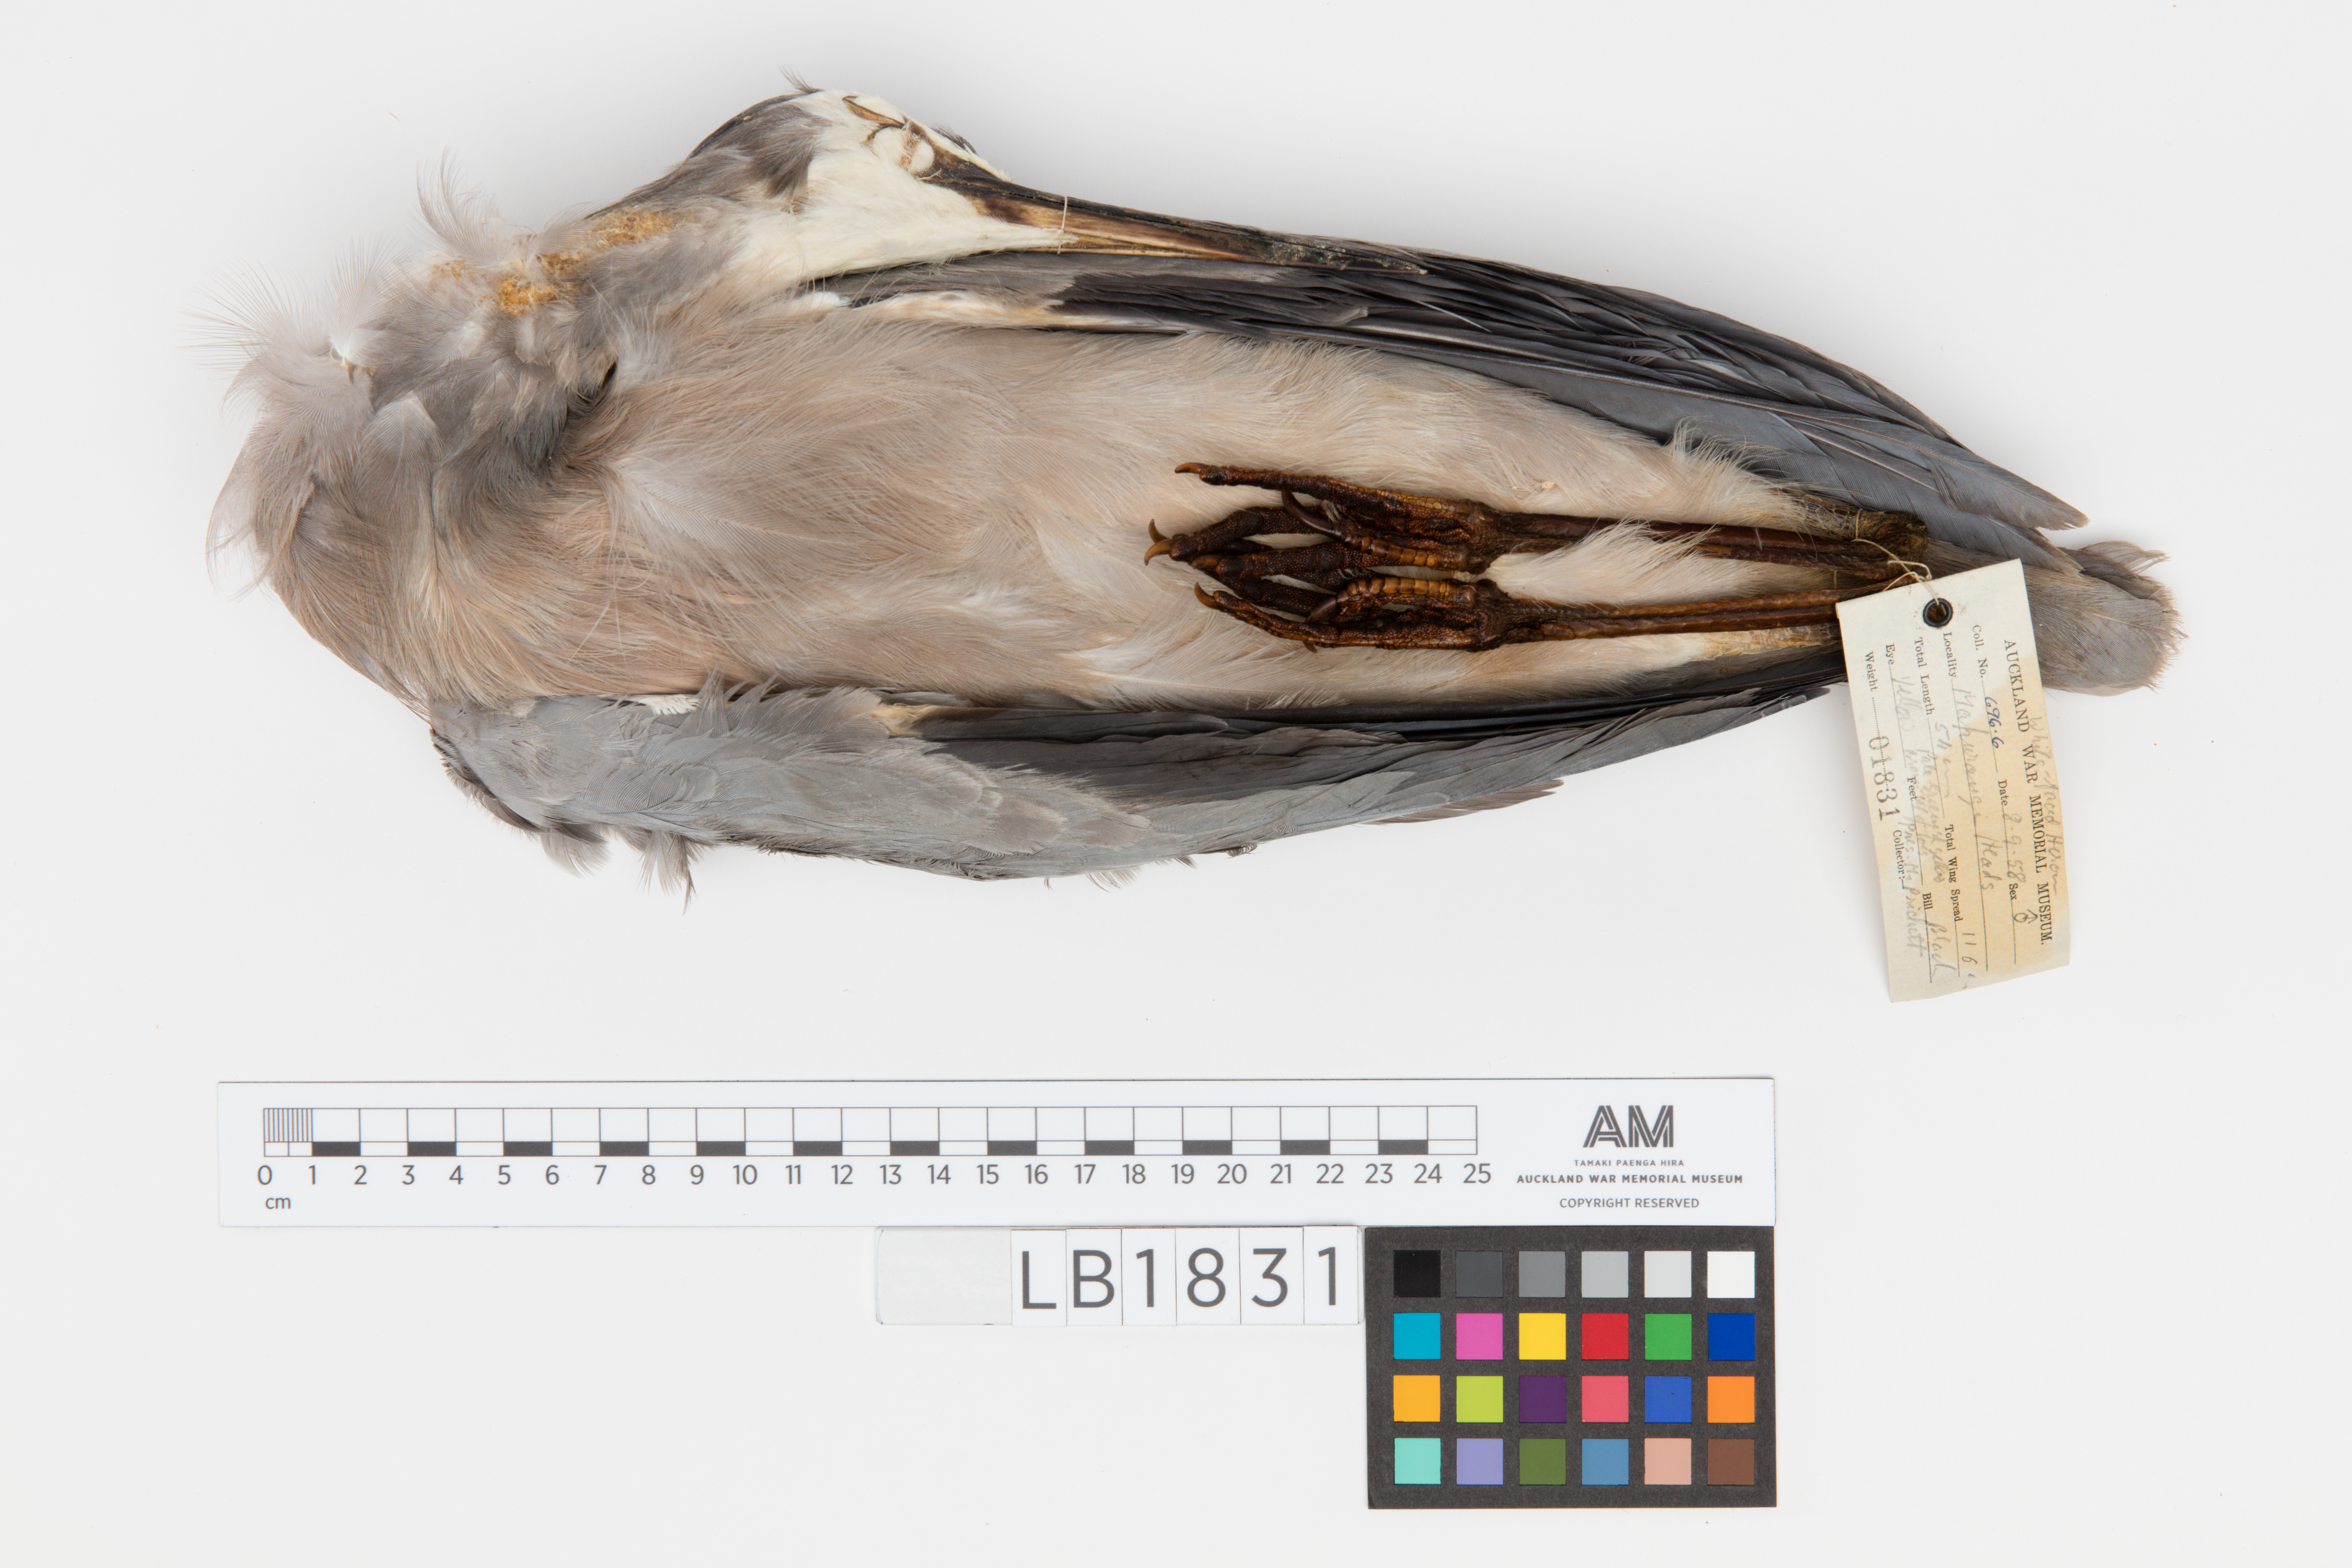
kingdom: Animalia
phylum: Chordata
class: Aves
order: Pelecaniformes
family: Ardeidae
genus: Egretta
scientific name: Egretta novaehollandiae
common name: White-faced heron
